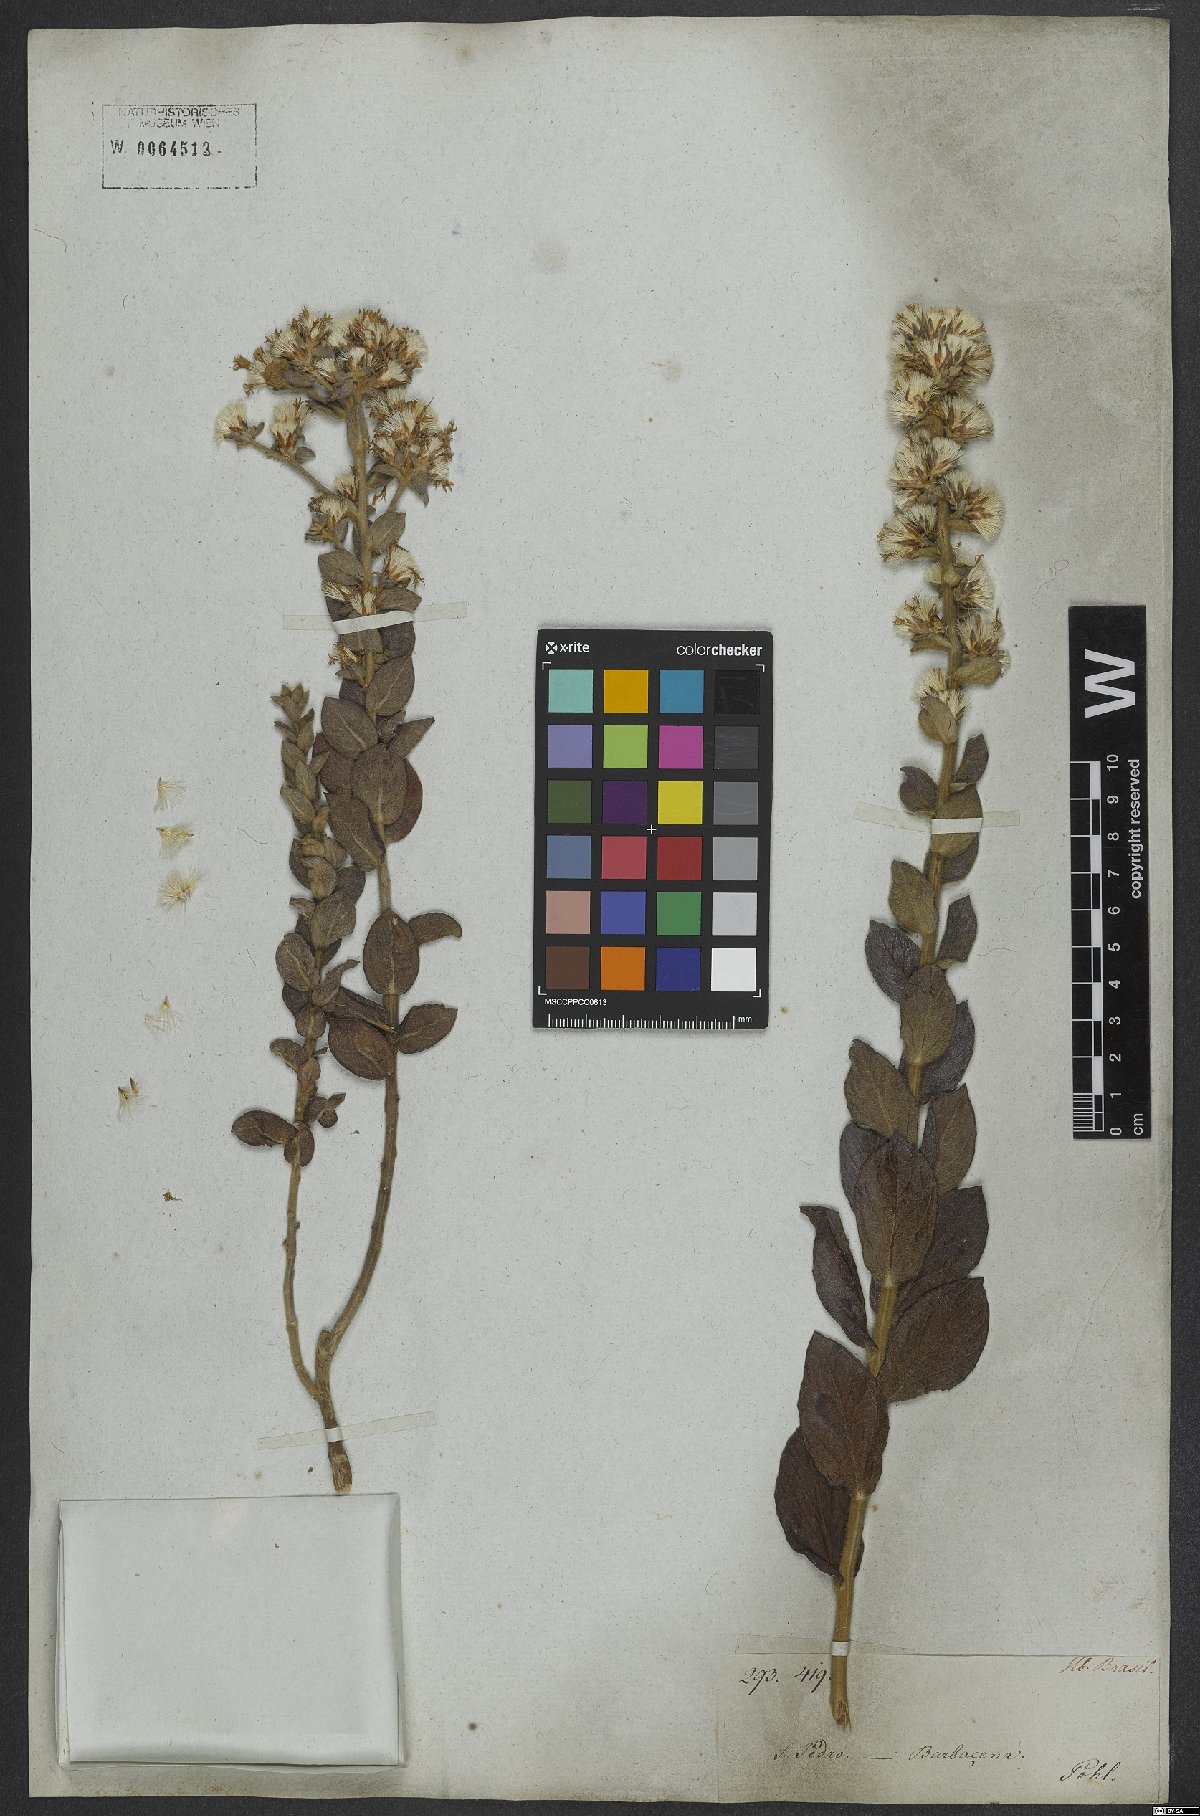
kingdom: Plantae
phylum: Tracheophyta
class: Magnoliopsida
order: Asterales
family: Asteraceae
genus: Lepidaploa
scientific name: Lepidaploa barbata
